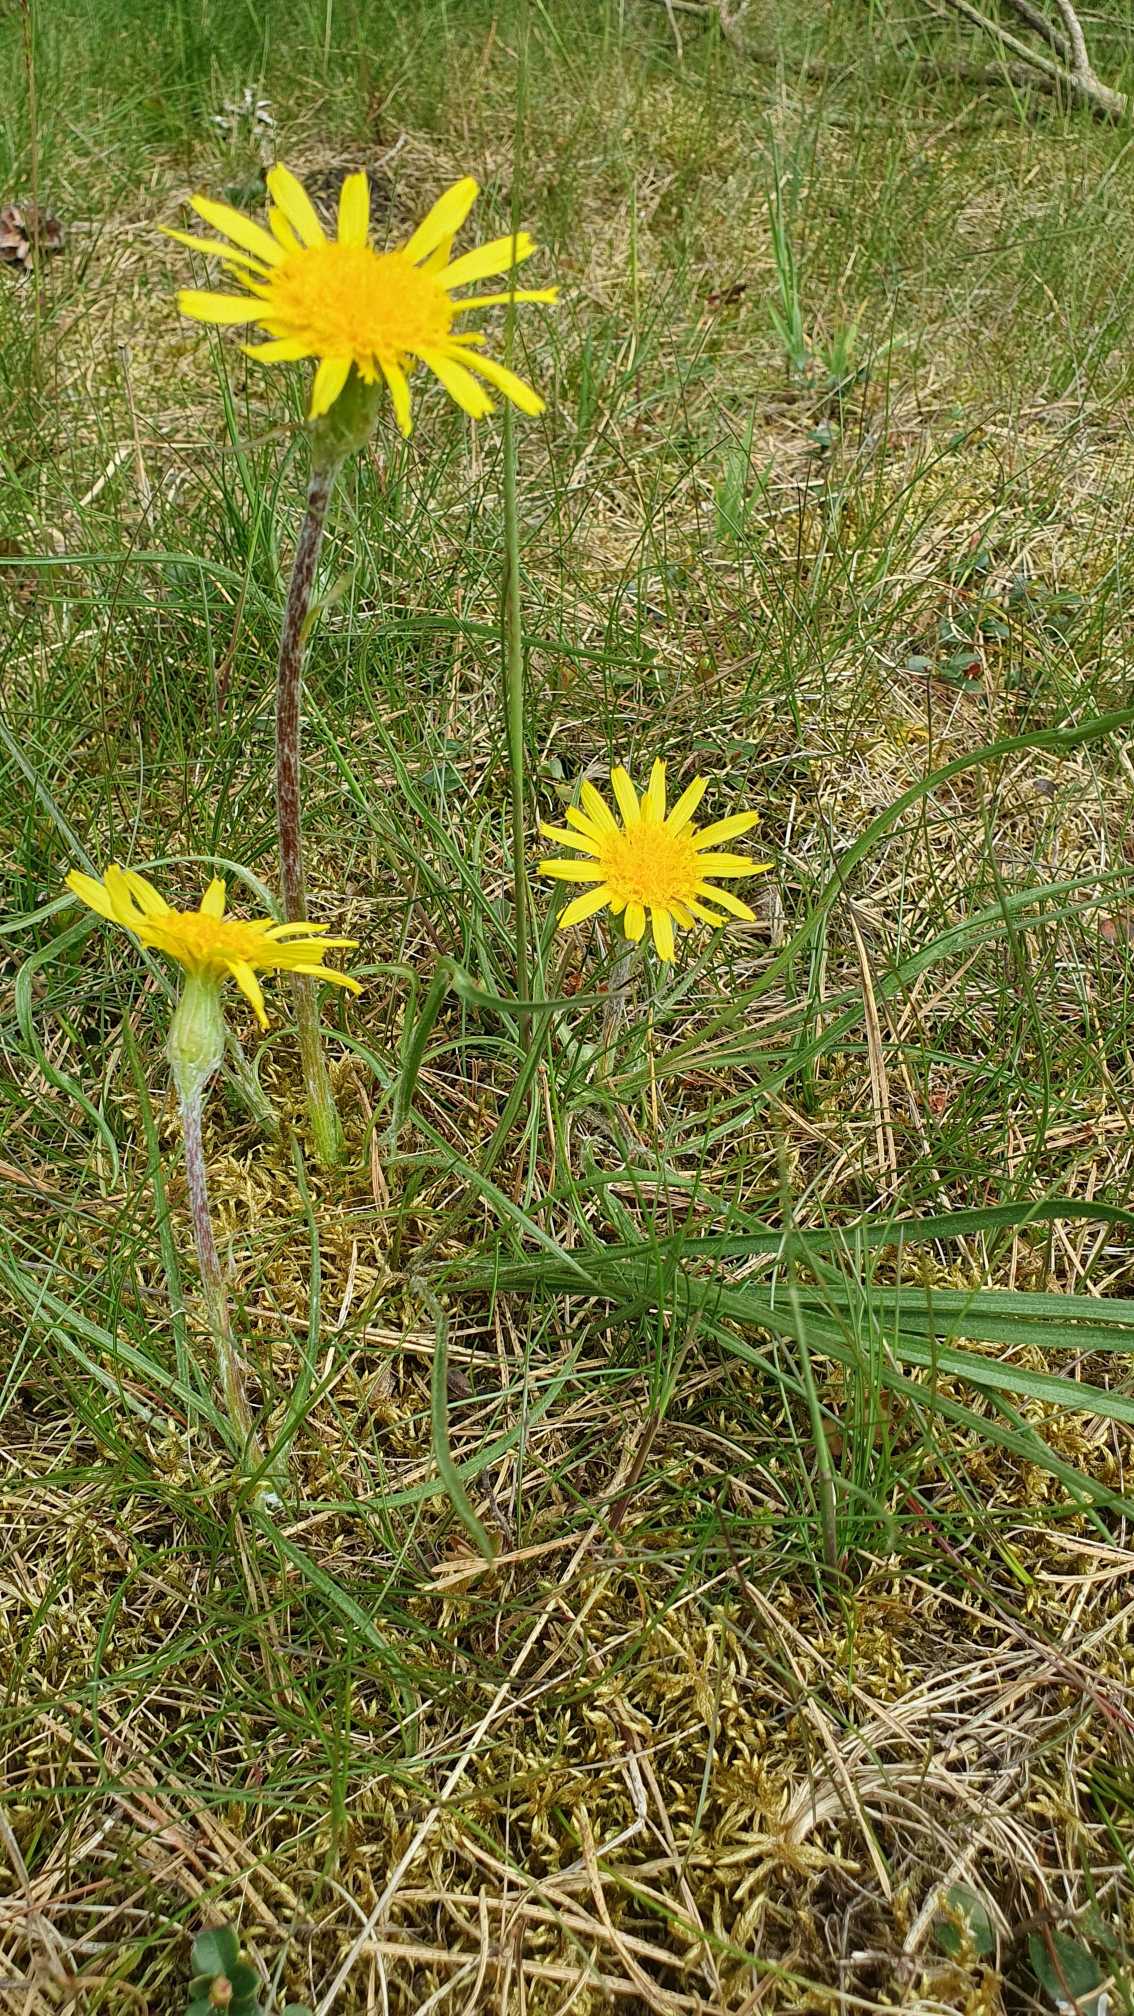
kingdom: Plantae
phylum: Tracheophyta
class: Magnoliopsida
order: Asterales
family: Asteraceae
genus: Scorzonera
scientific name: Scorzonera humilis
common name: Lav skorsoner
